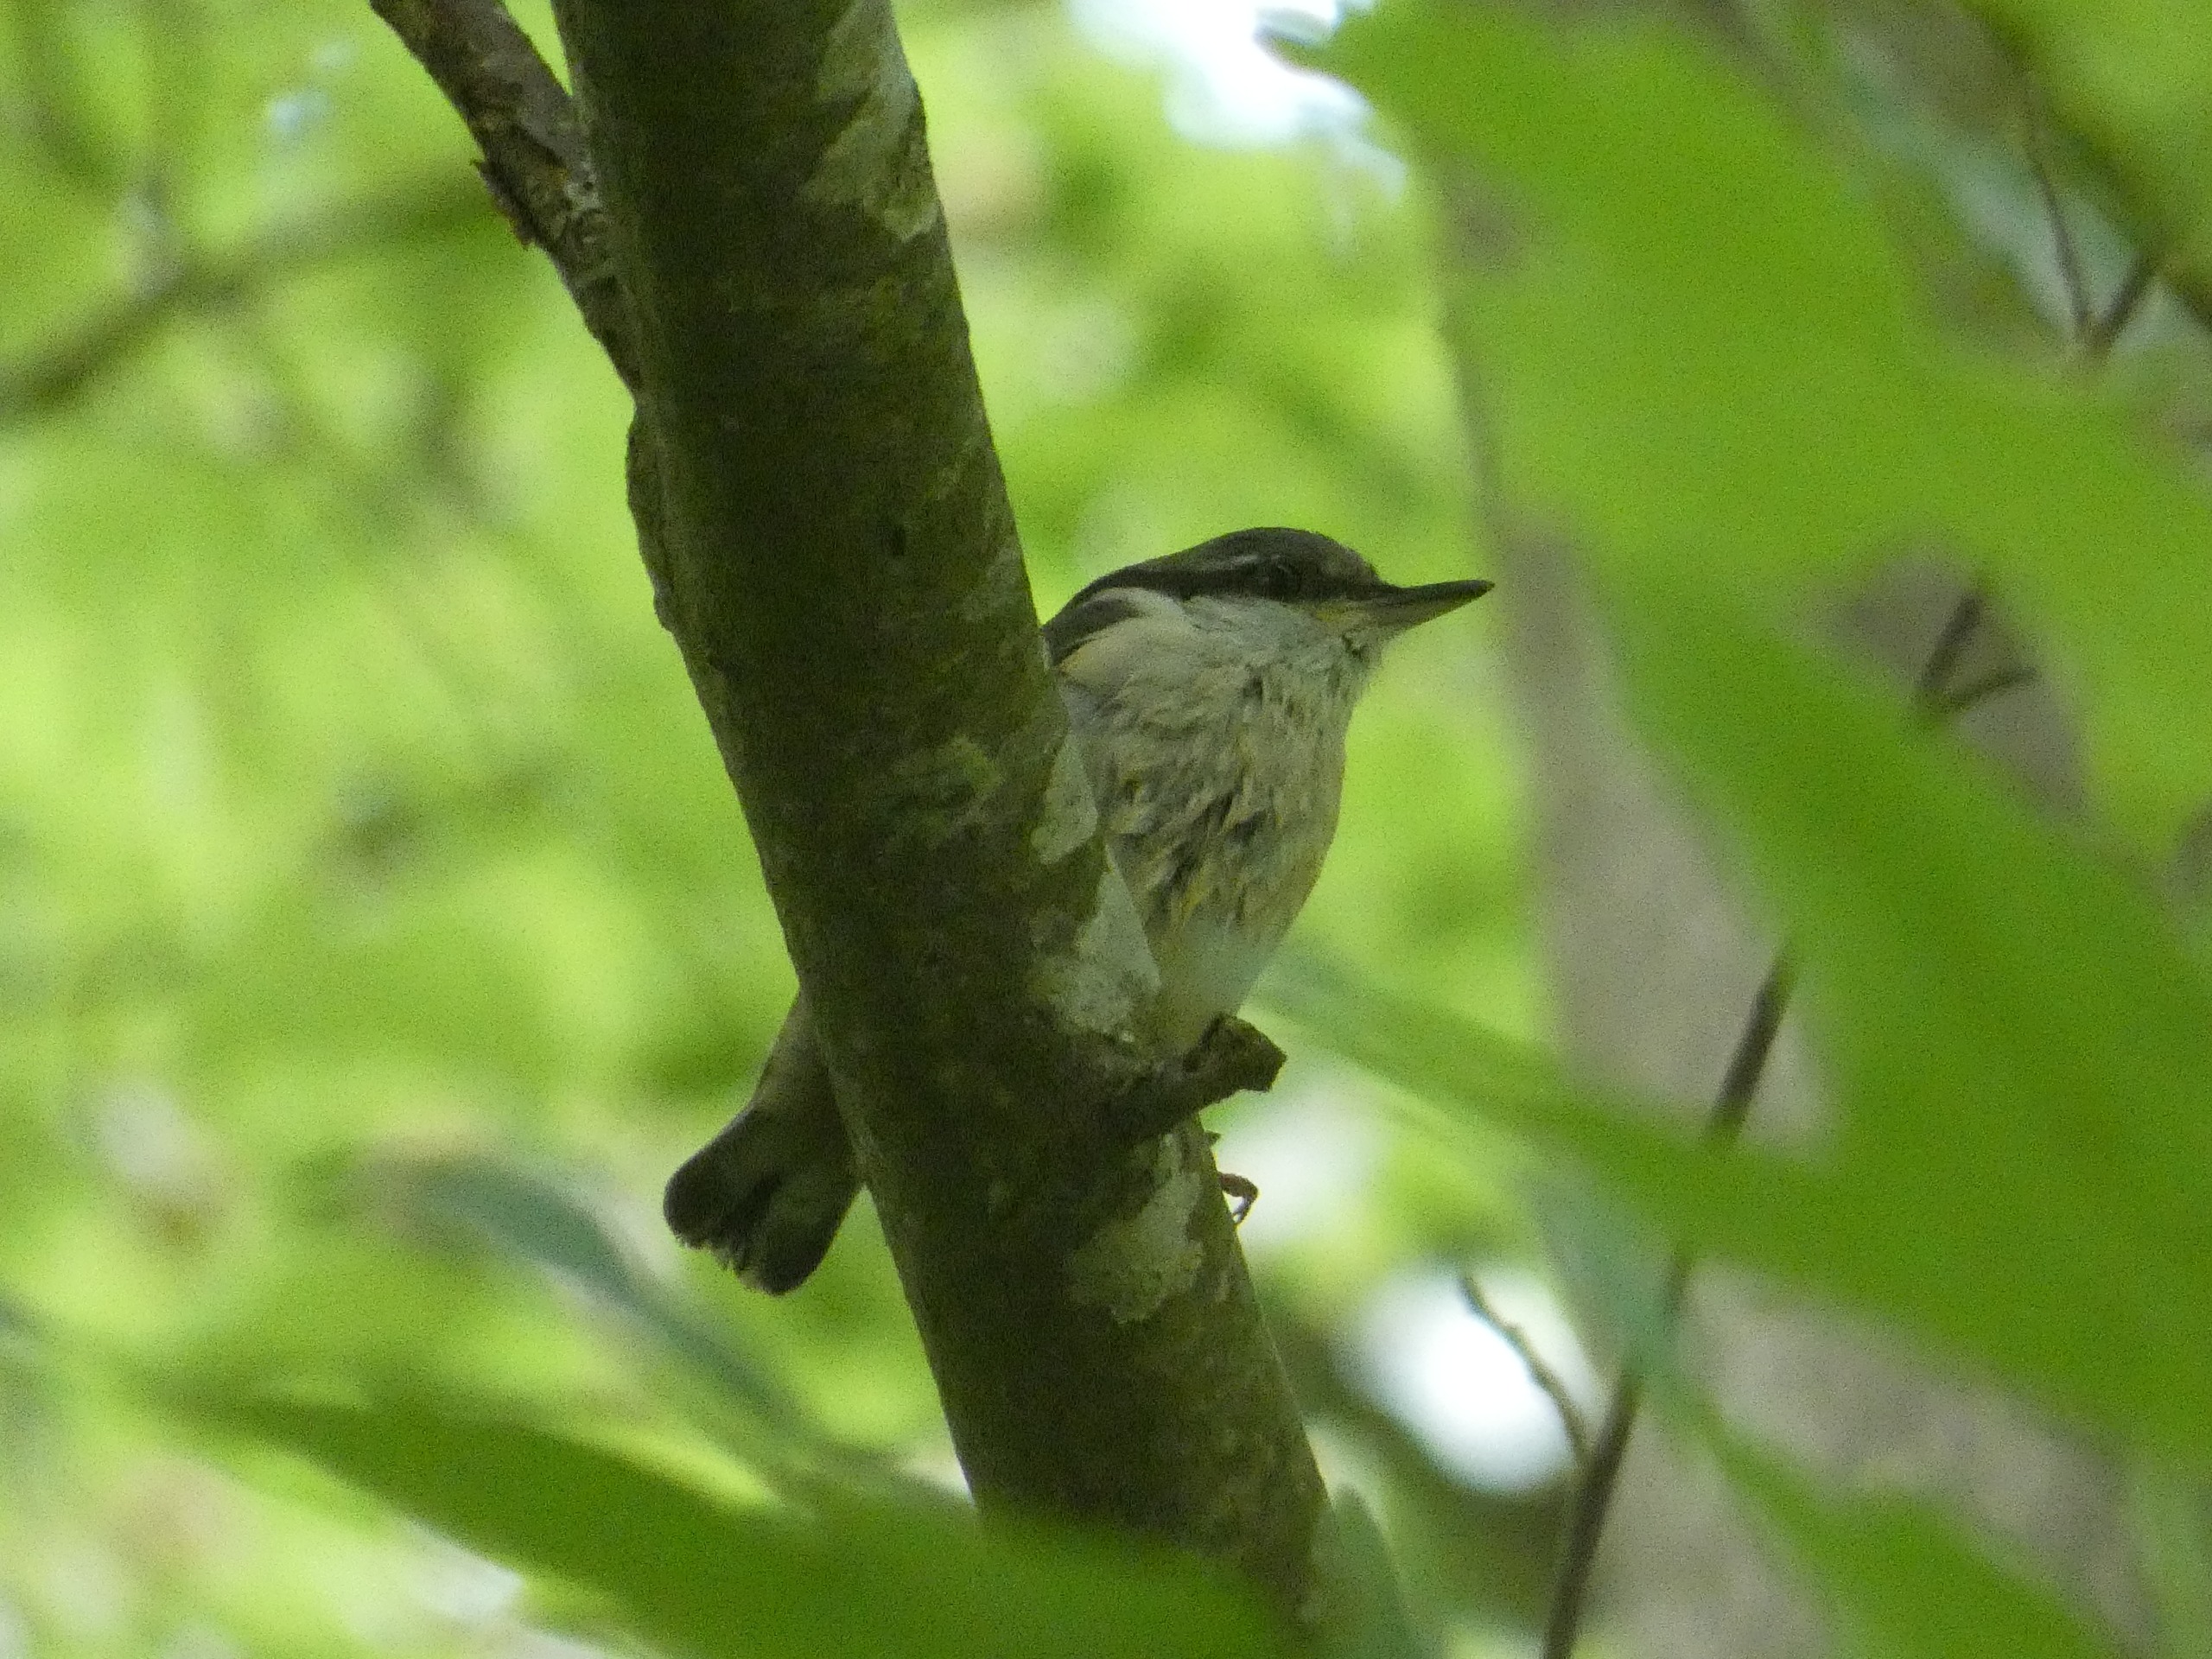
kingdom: Animalia
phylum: Chordata
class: Aves
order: Passeriformes
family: Sittidae
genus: Sitta
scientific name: Sitta europaea
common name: Spætmejse
